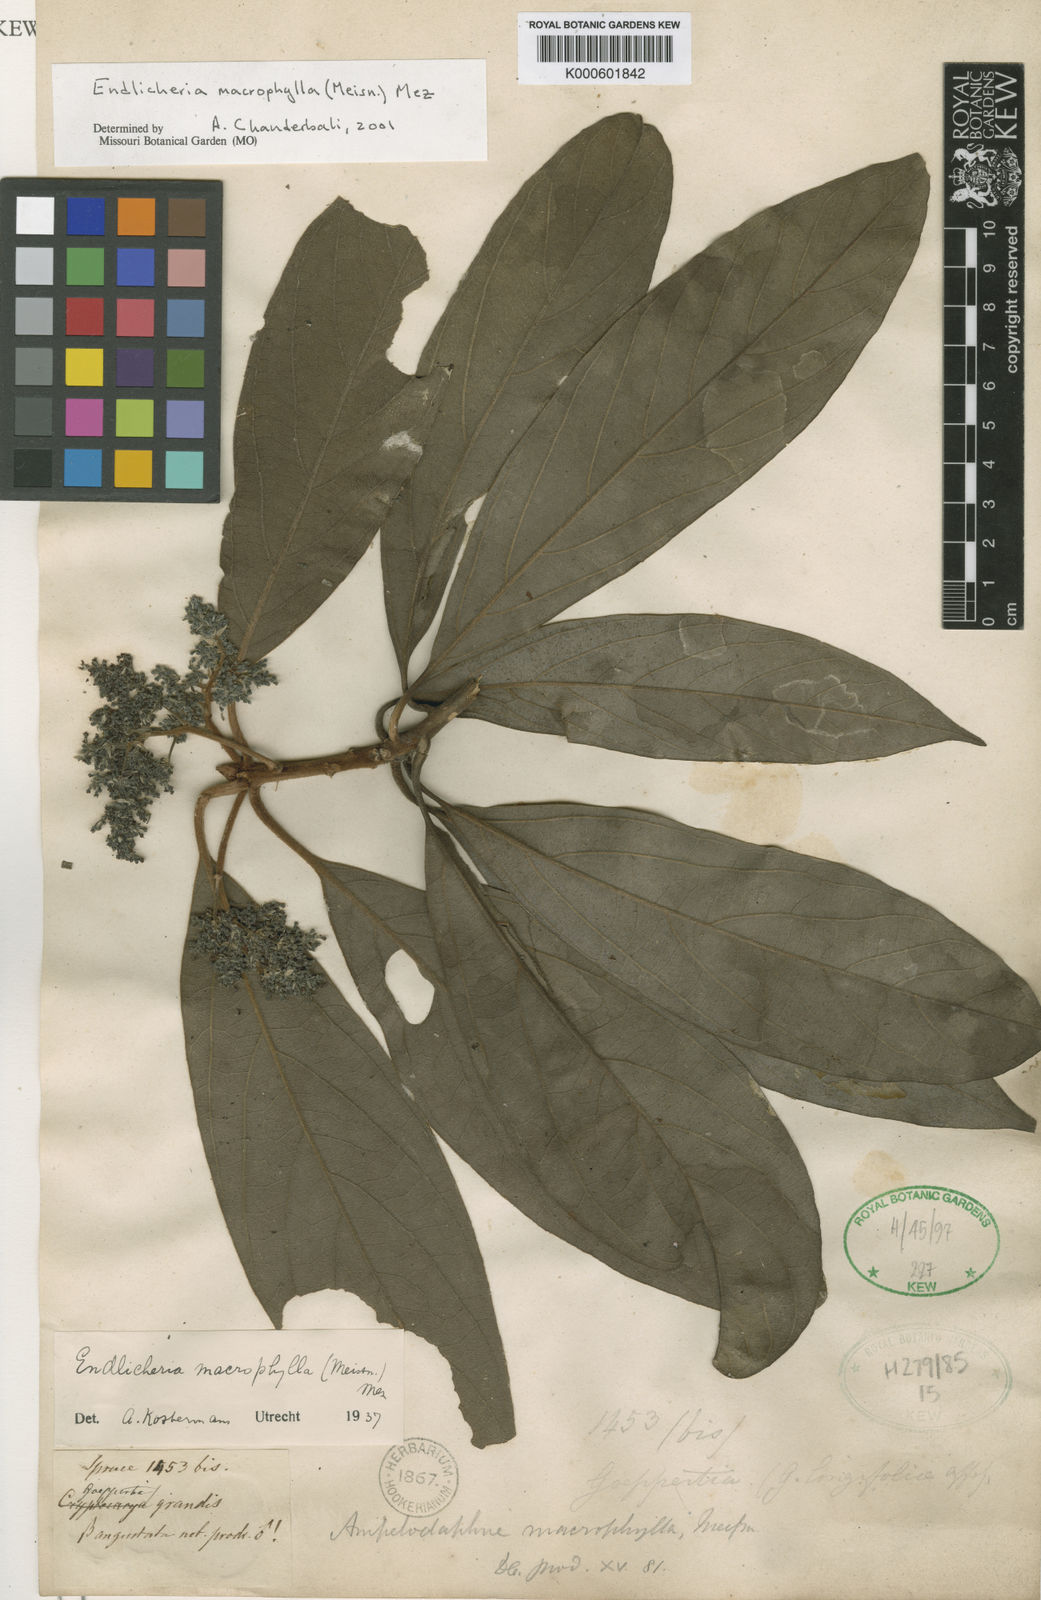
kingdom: Plantae
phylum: Tracheophyta
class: Magnoliopsida
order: Laurales
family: Lauraceae
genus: Endlicheria
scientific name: Endlicheria macrophylla
